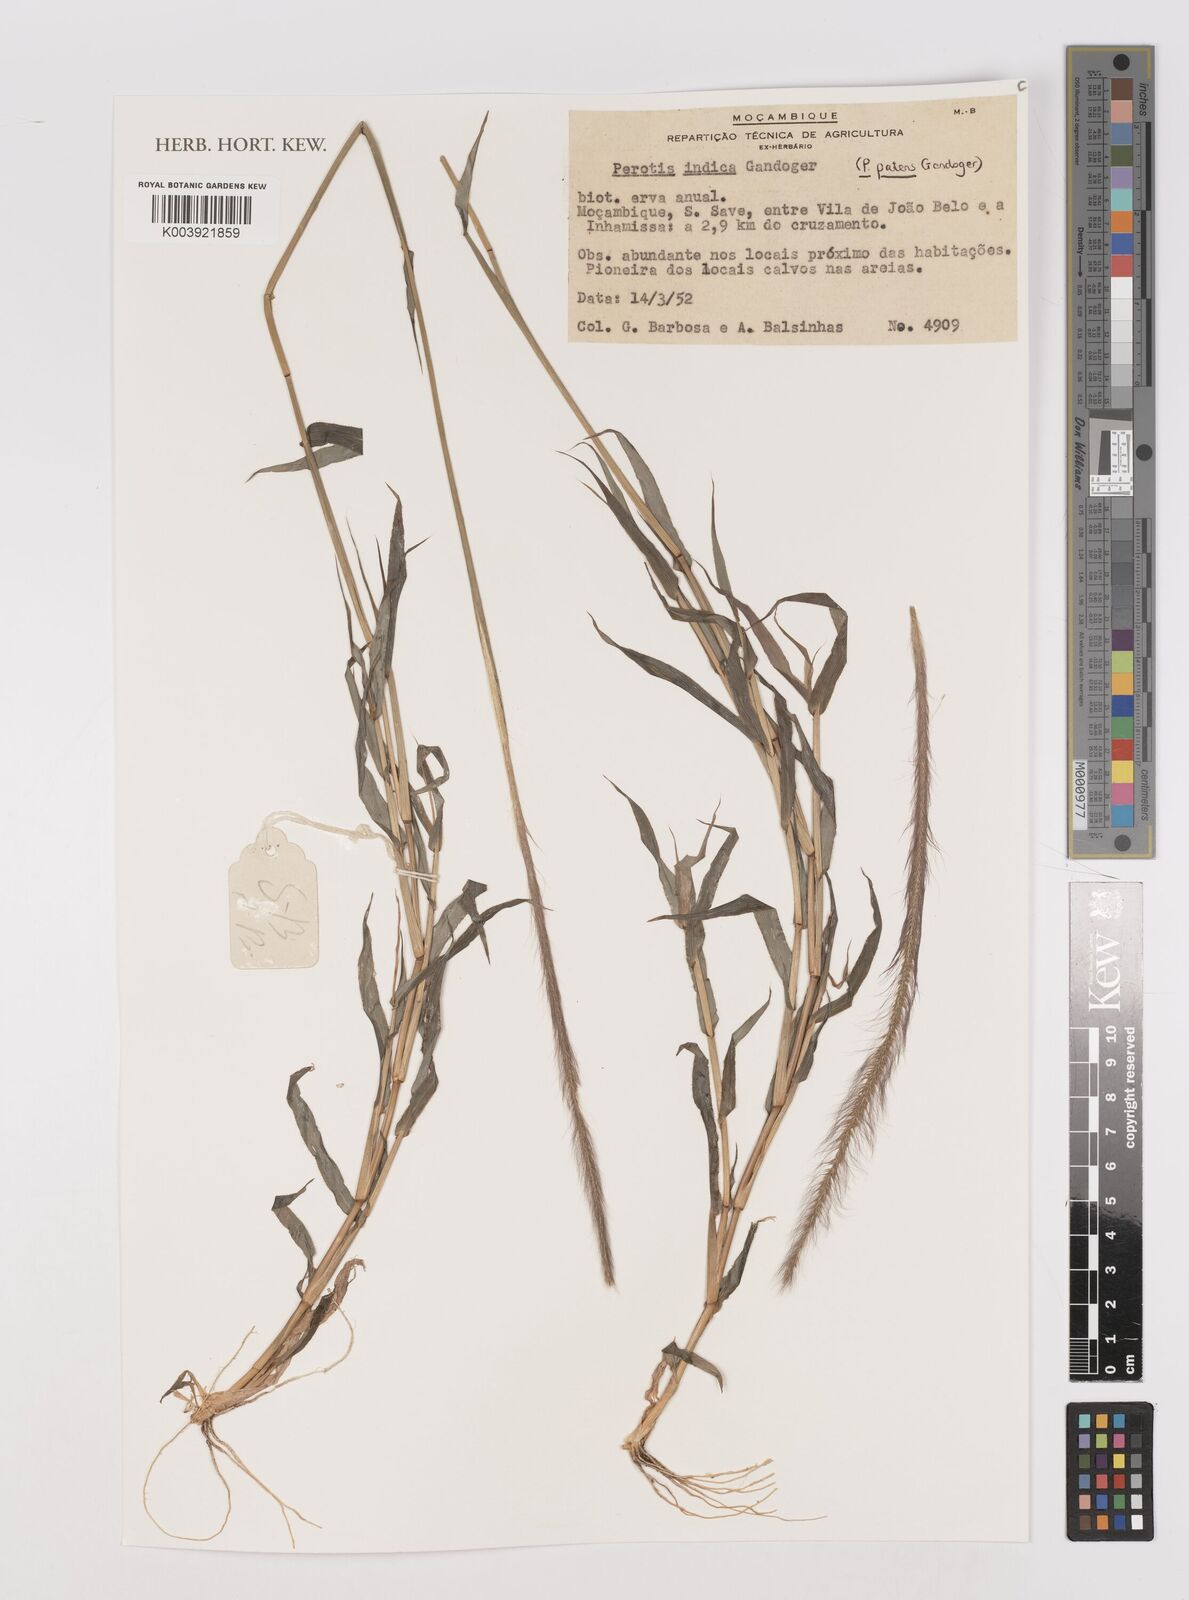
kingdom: Plantae
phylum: Tracheophyta
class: Liliopsida
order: Poales
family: Poaceae
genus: Perotis
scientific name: Perotis patens
